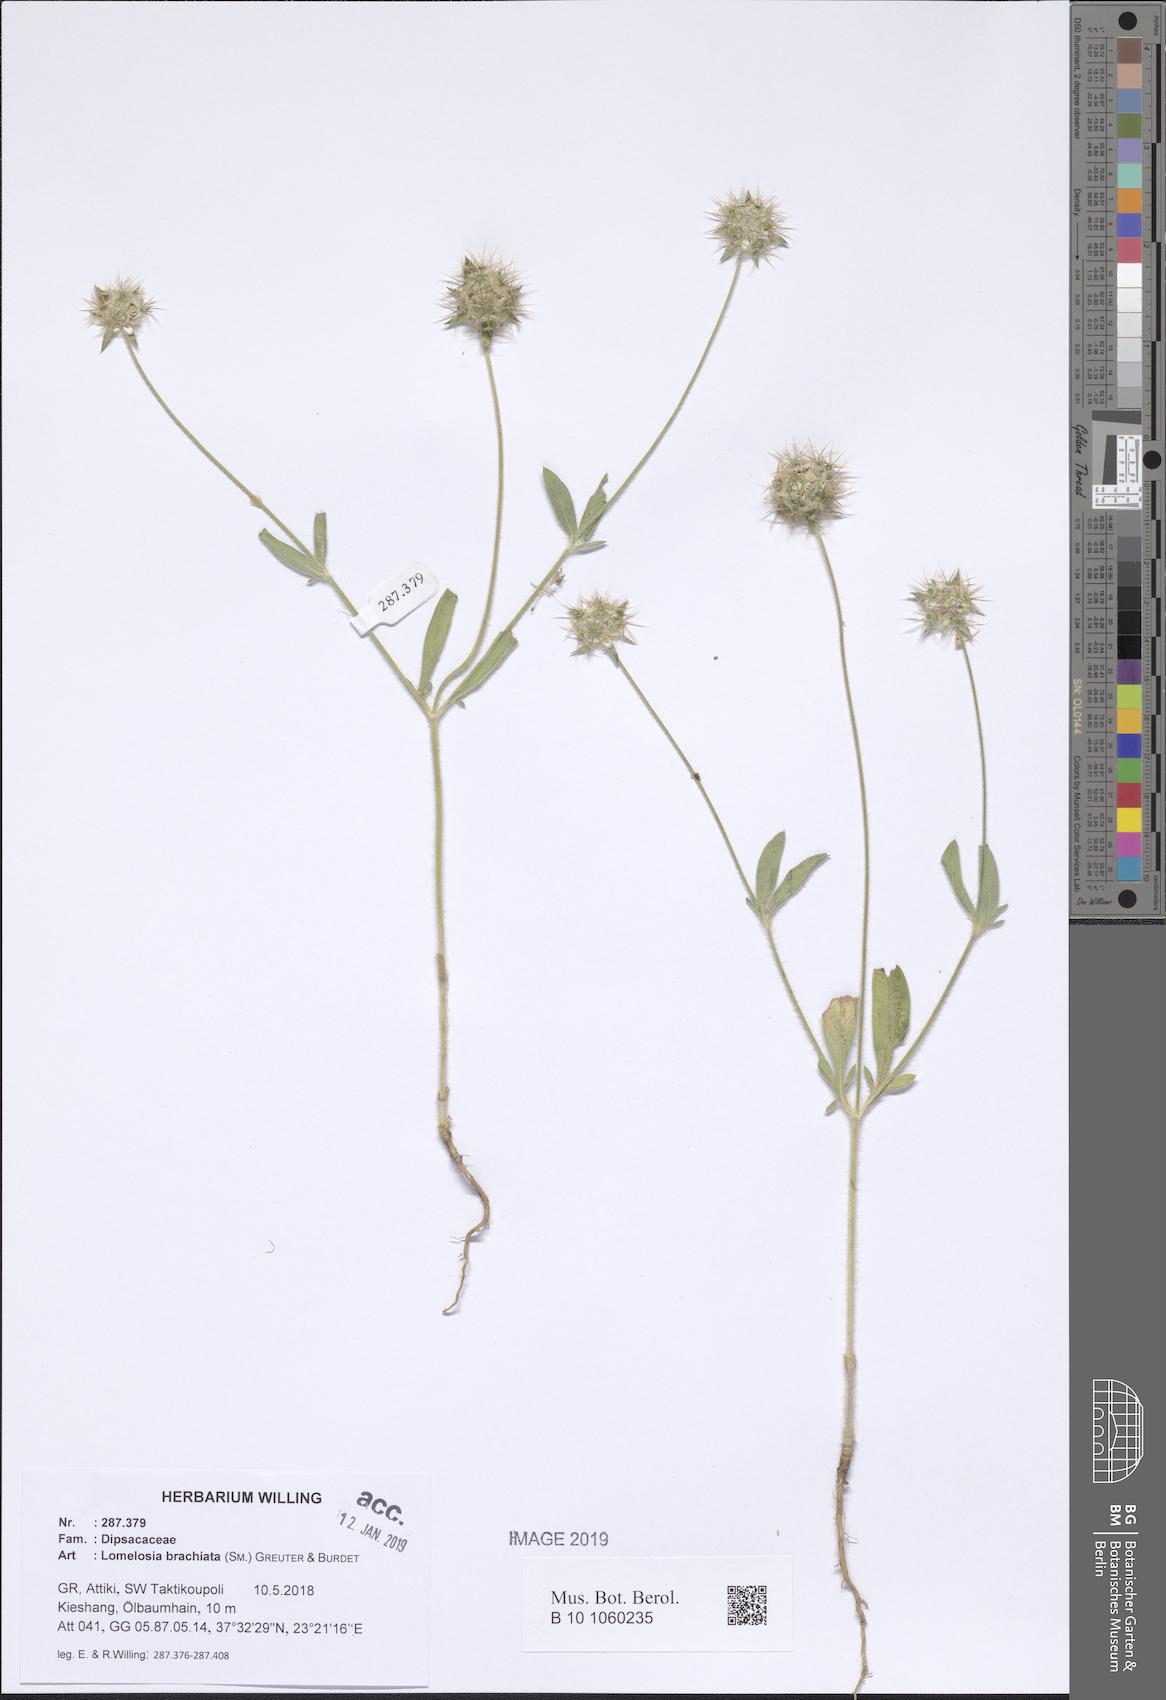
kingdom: Plantae
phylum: Tracheophyta
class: Magnoliopsida
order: Dipsacales
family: Caprifoliaceae
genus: Lomelosia
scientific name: Lomelosia brachiata
